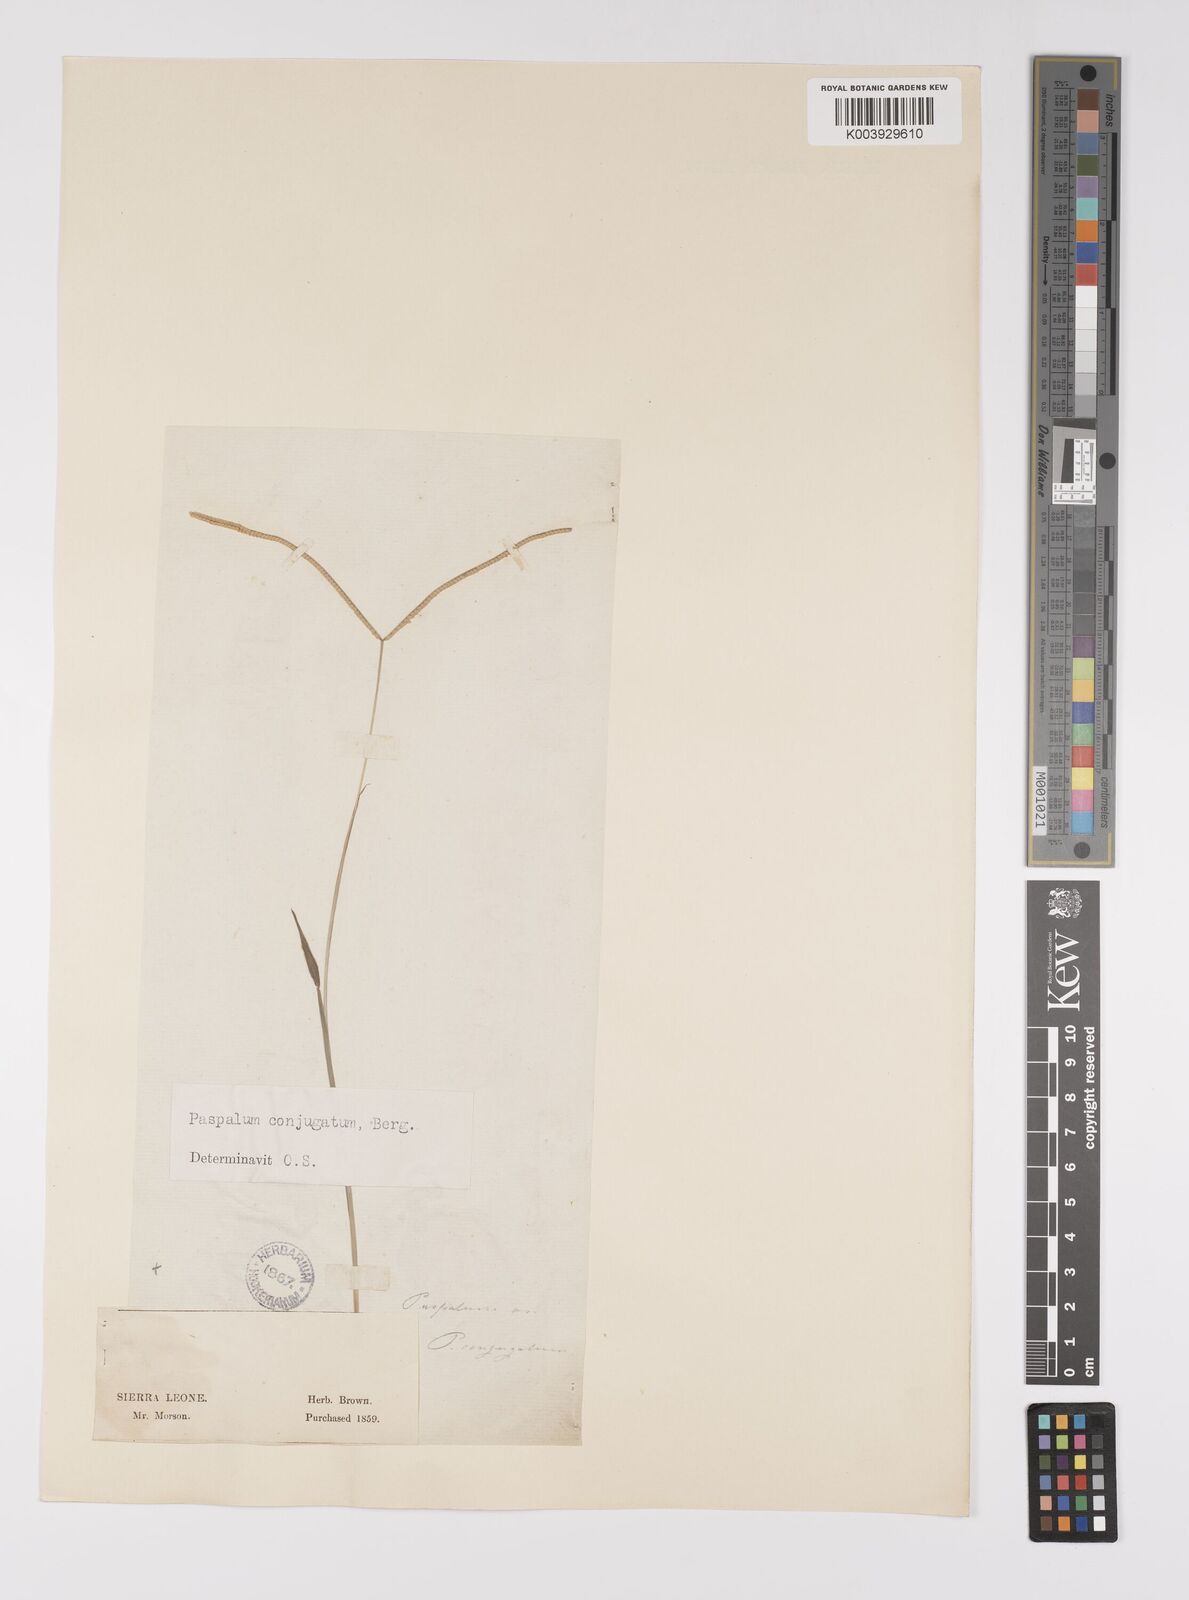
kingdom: Plantae
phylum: Tracheophyta
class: Liliopsida
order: Poales
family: Poaceae
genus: Paspalum
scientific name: Paspalum conjugatum
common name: Hilograss
